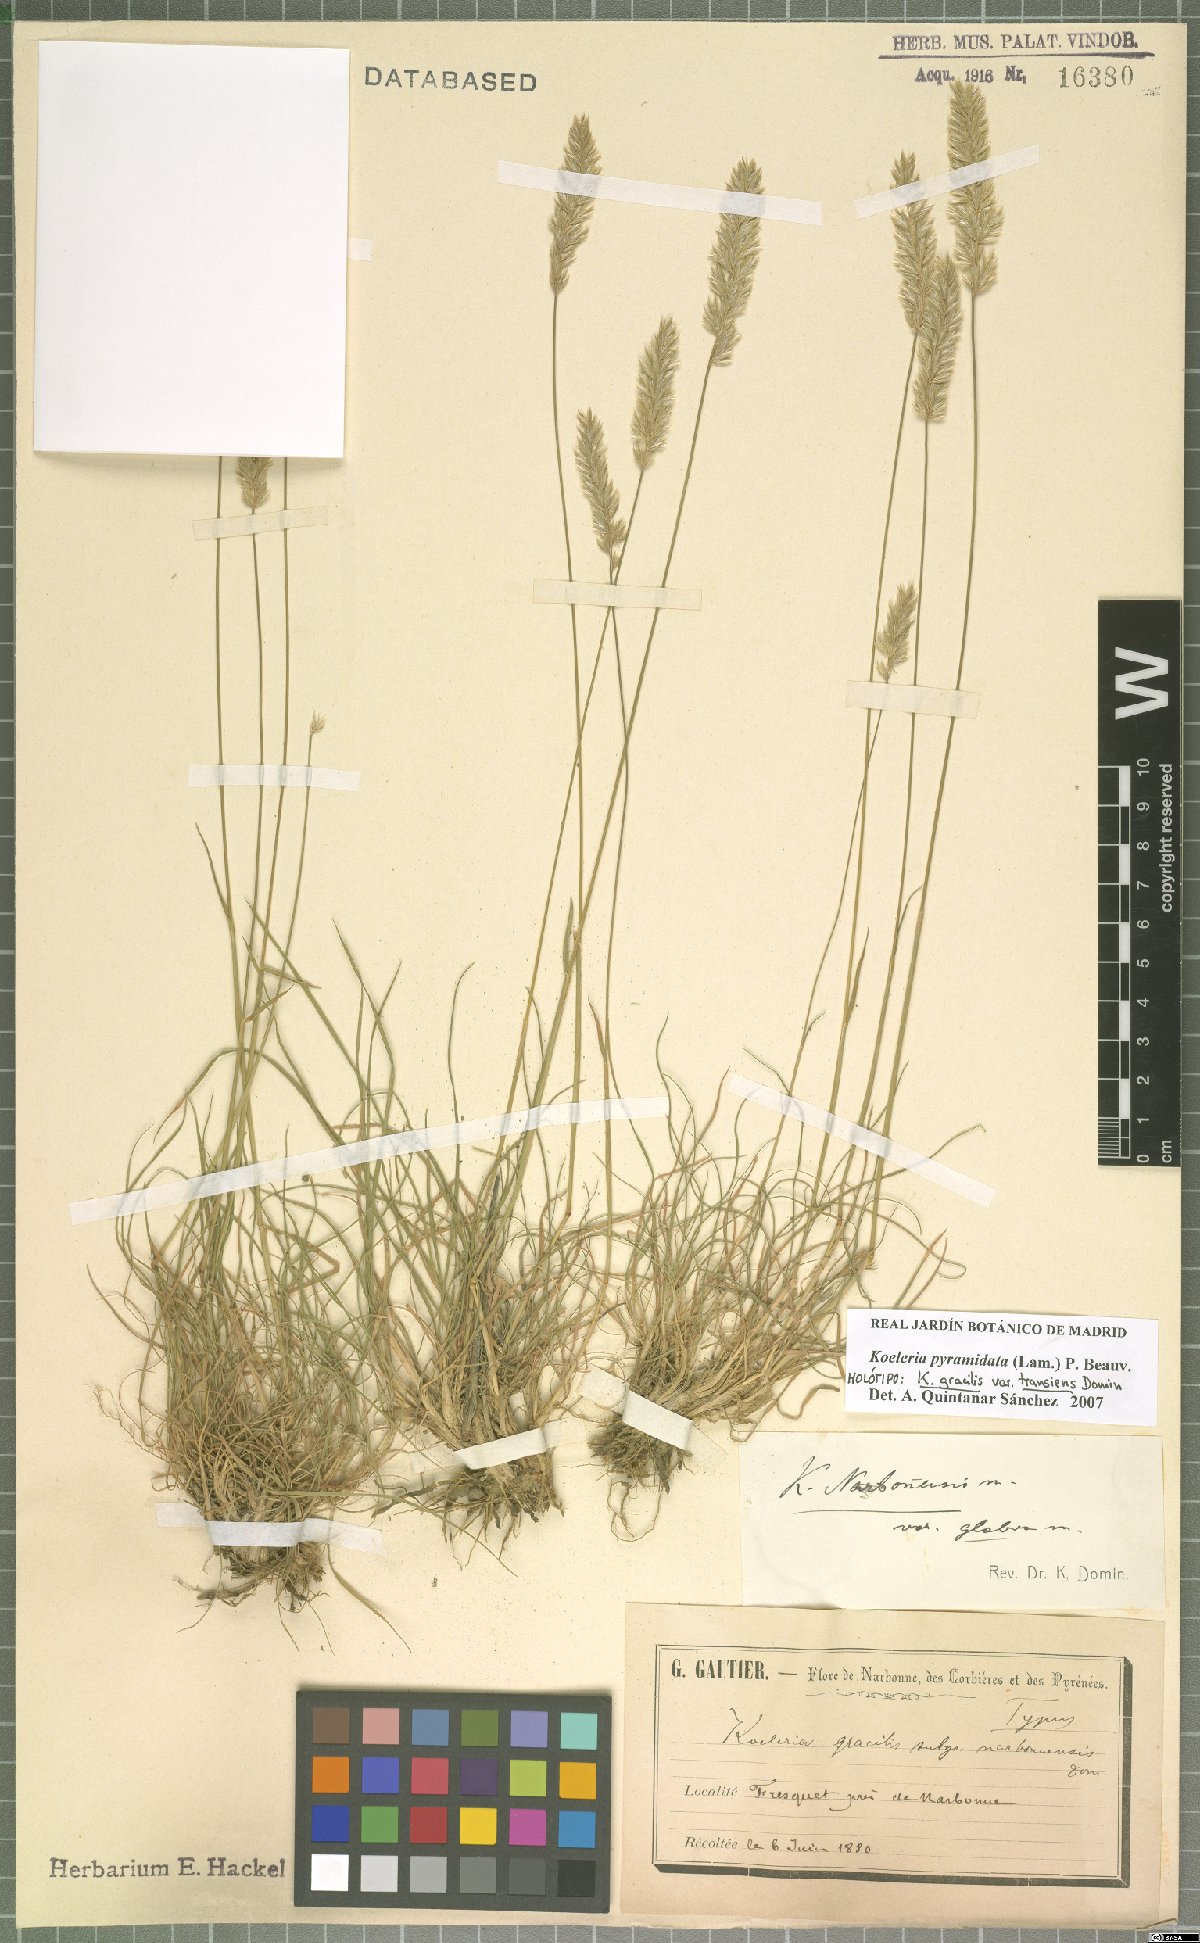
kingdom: Plantae
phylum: Tracheophyta
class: Liliopsida
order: Poales
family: Poaceae
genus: Koeleria
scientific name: Koeleria pyramidata
